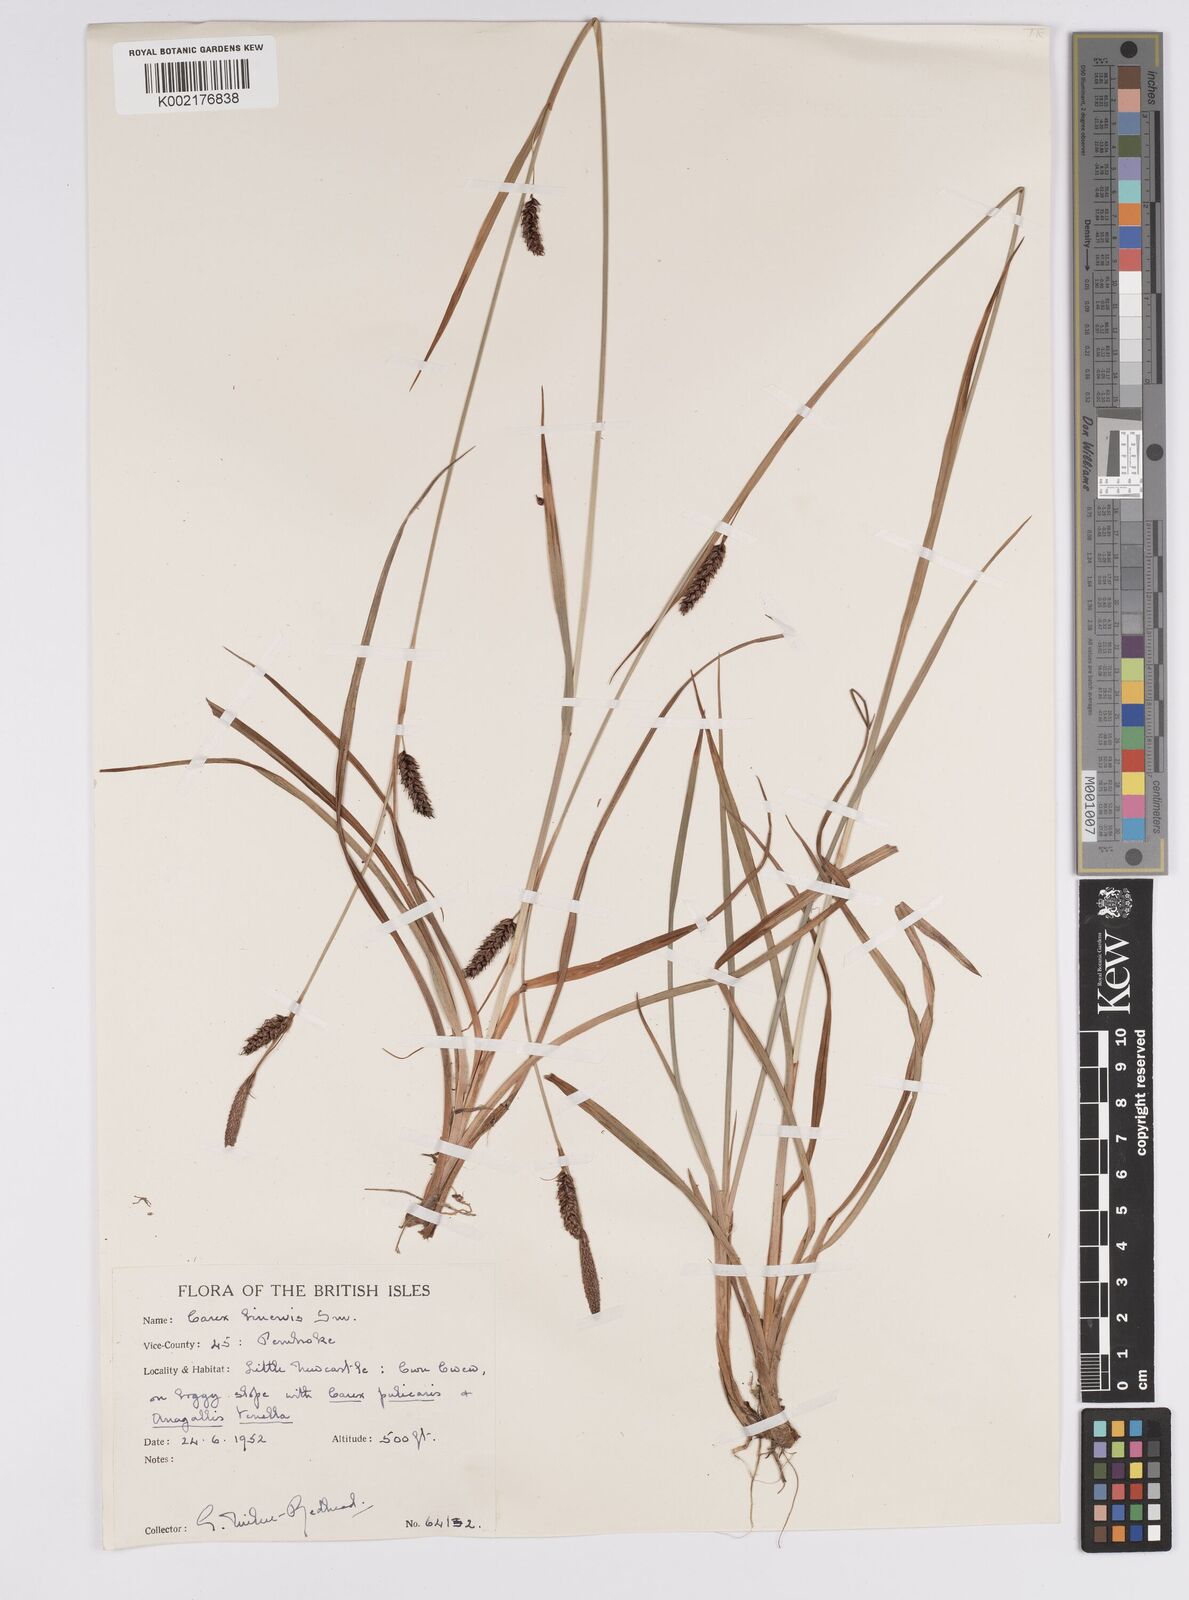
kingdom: Plantae
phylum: Tracheophyta
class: Liliopsida
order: Poales
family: Cyperaceae
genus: Carex
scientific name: Carex binervis
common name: Green-ribbed sedge
